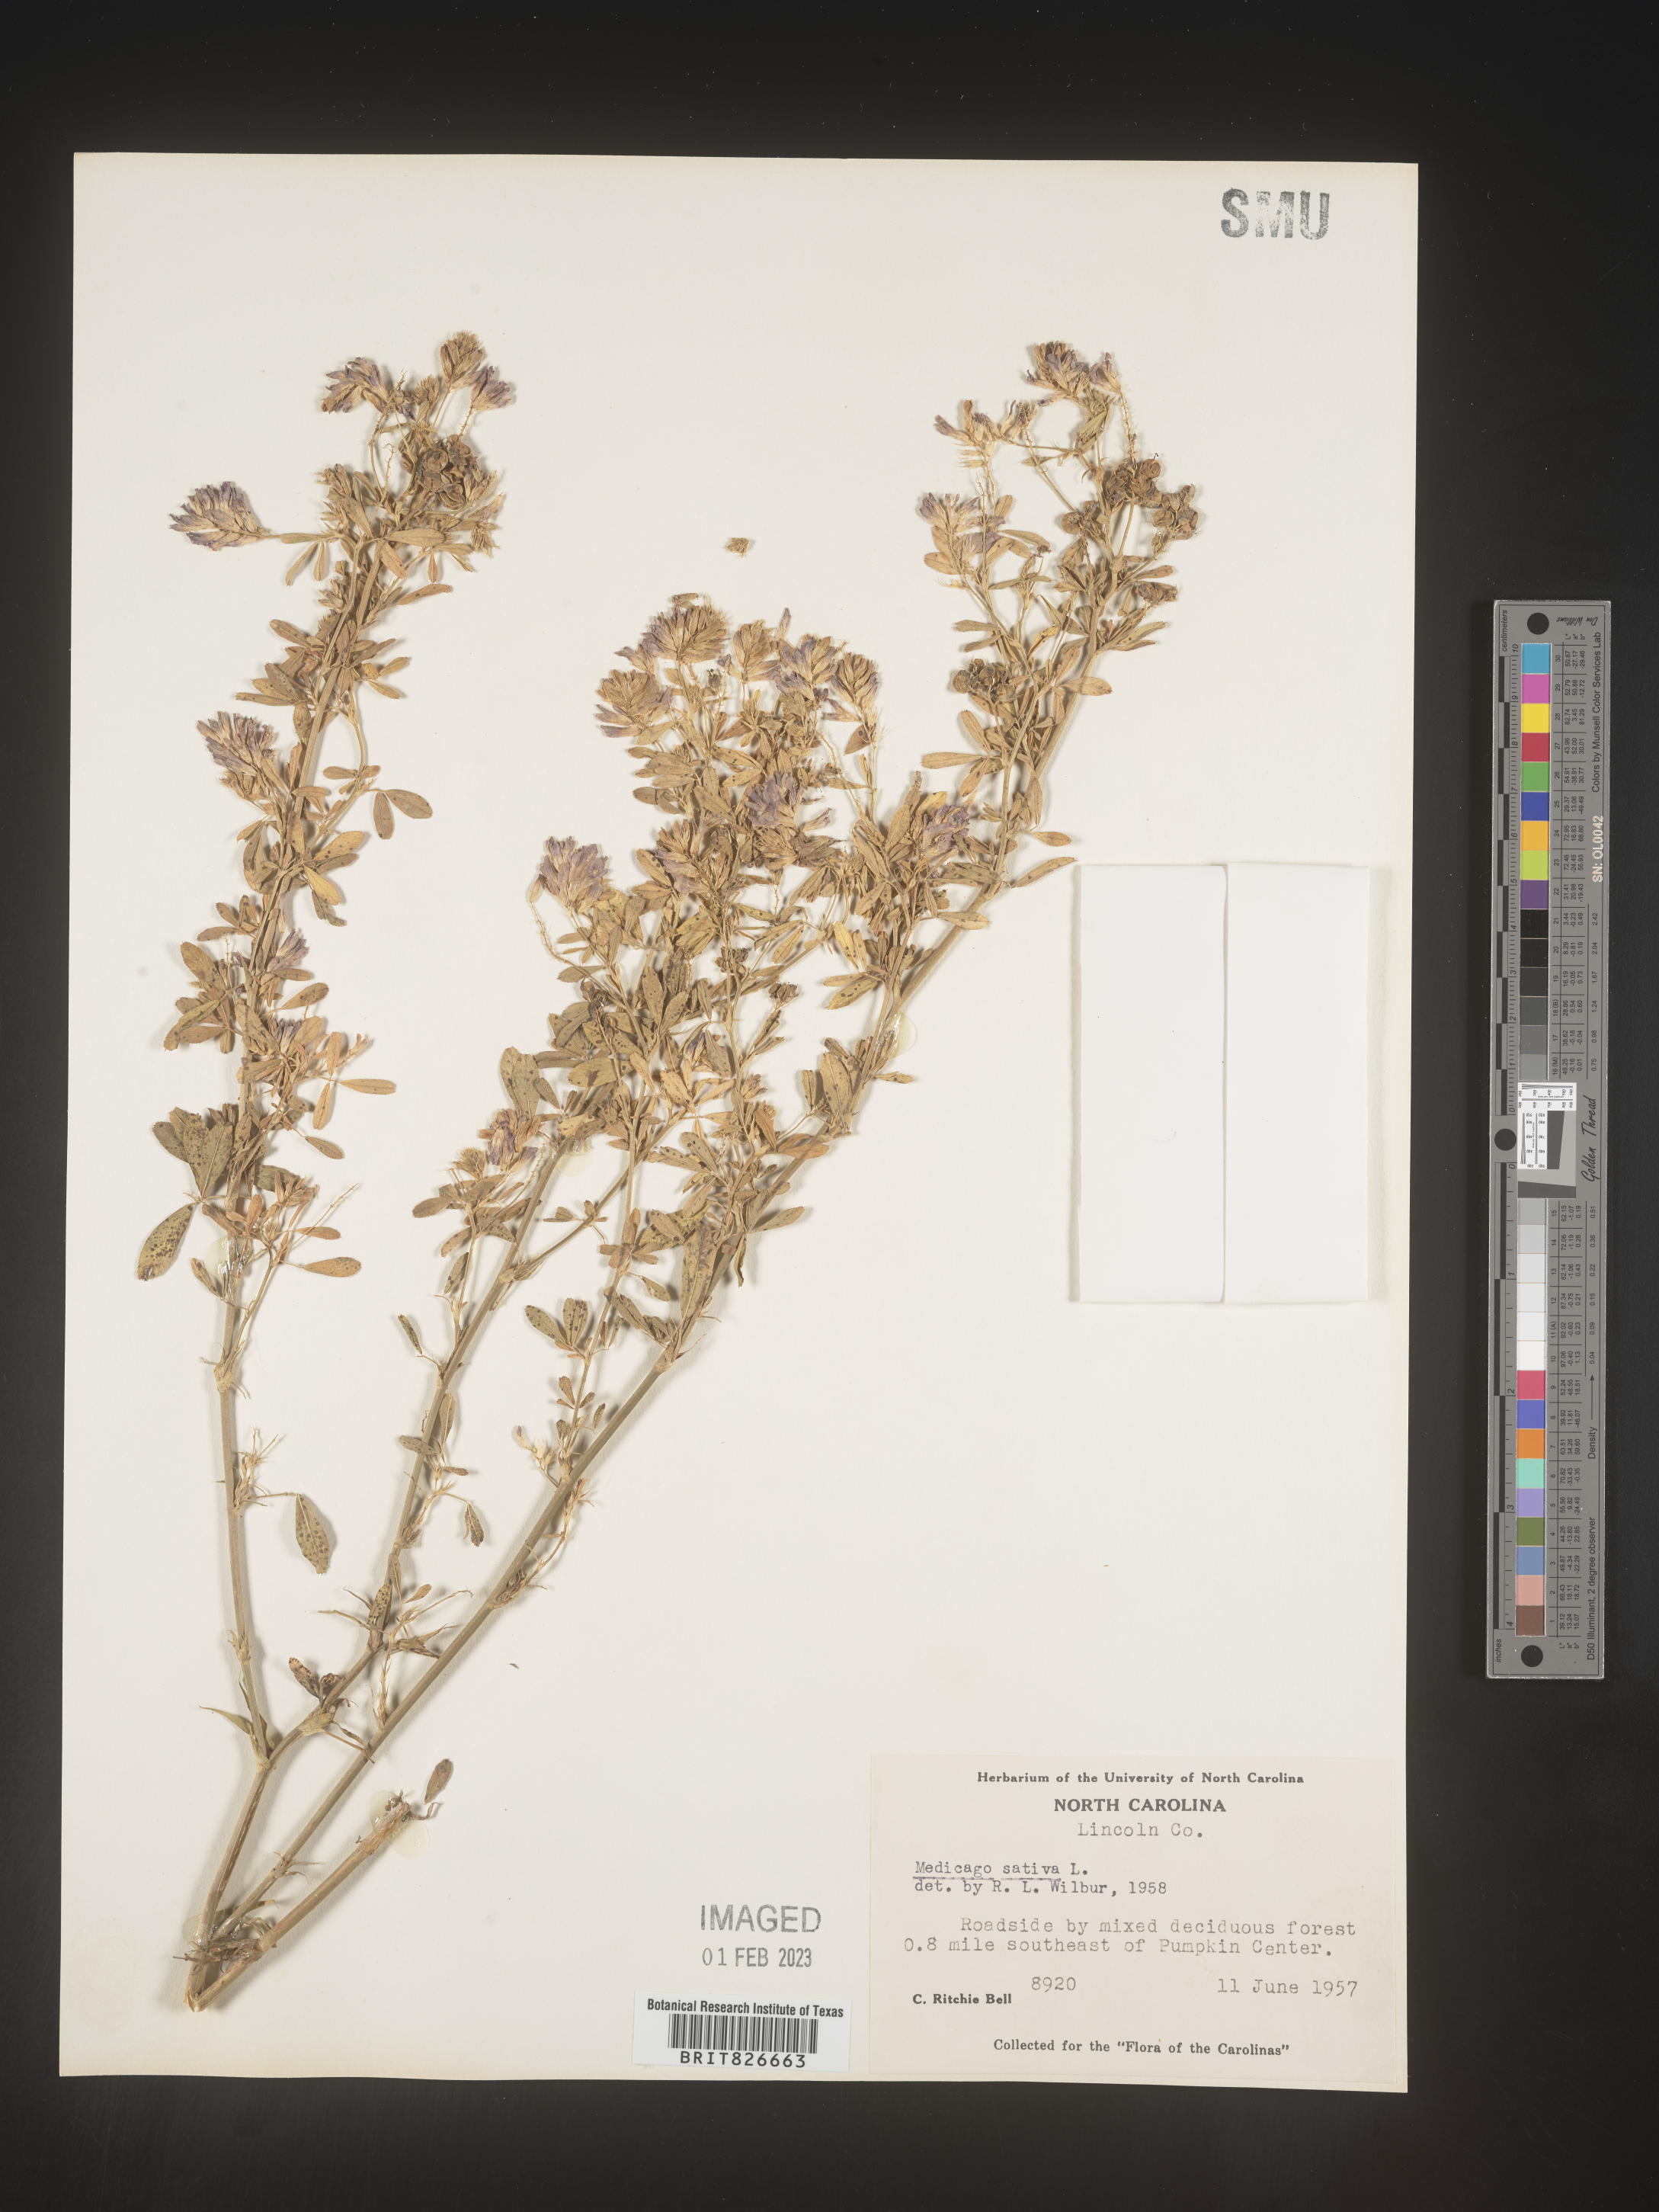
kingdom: Plantae
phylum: Tracheophyta
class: Magnoliopsida
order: Fabales
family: Fabaceae
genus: Medicago
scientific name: Medicago sativa
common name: Alfalfa
